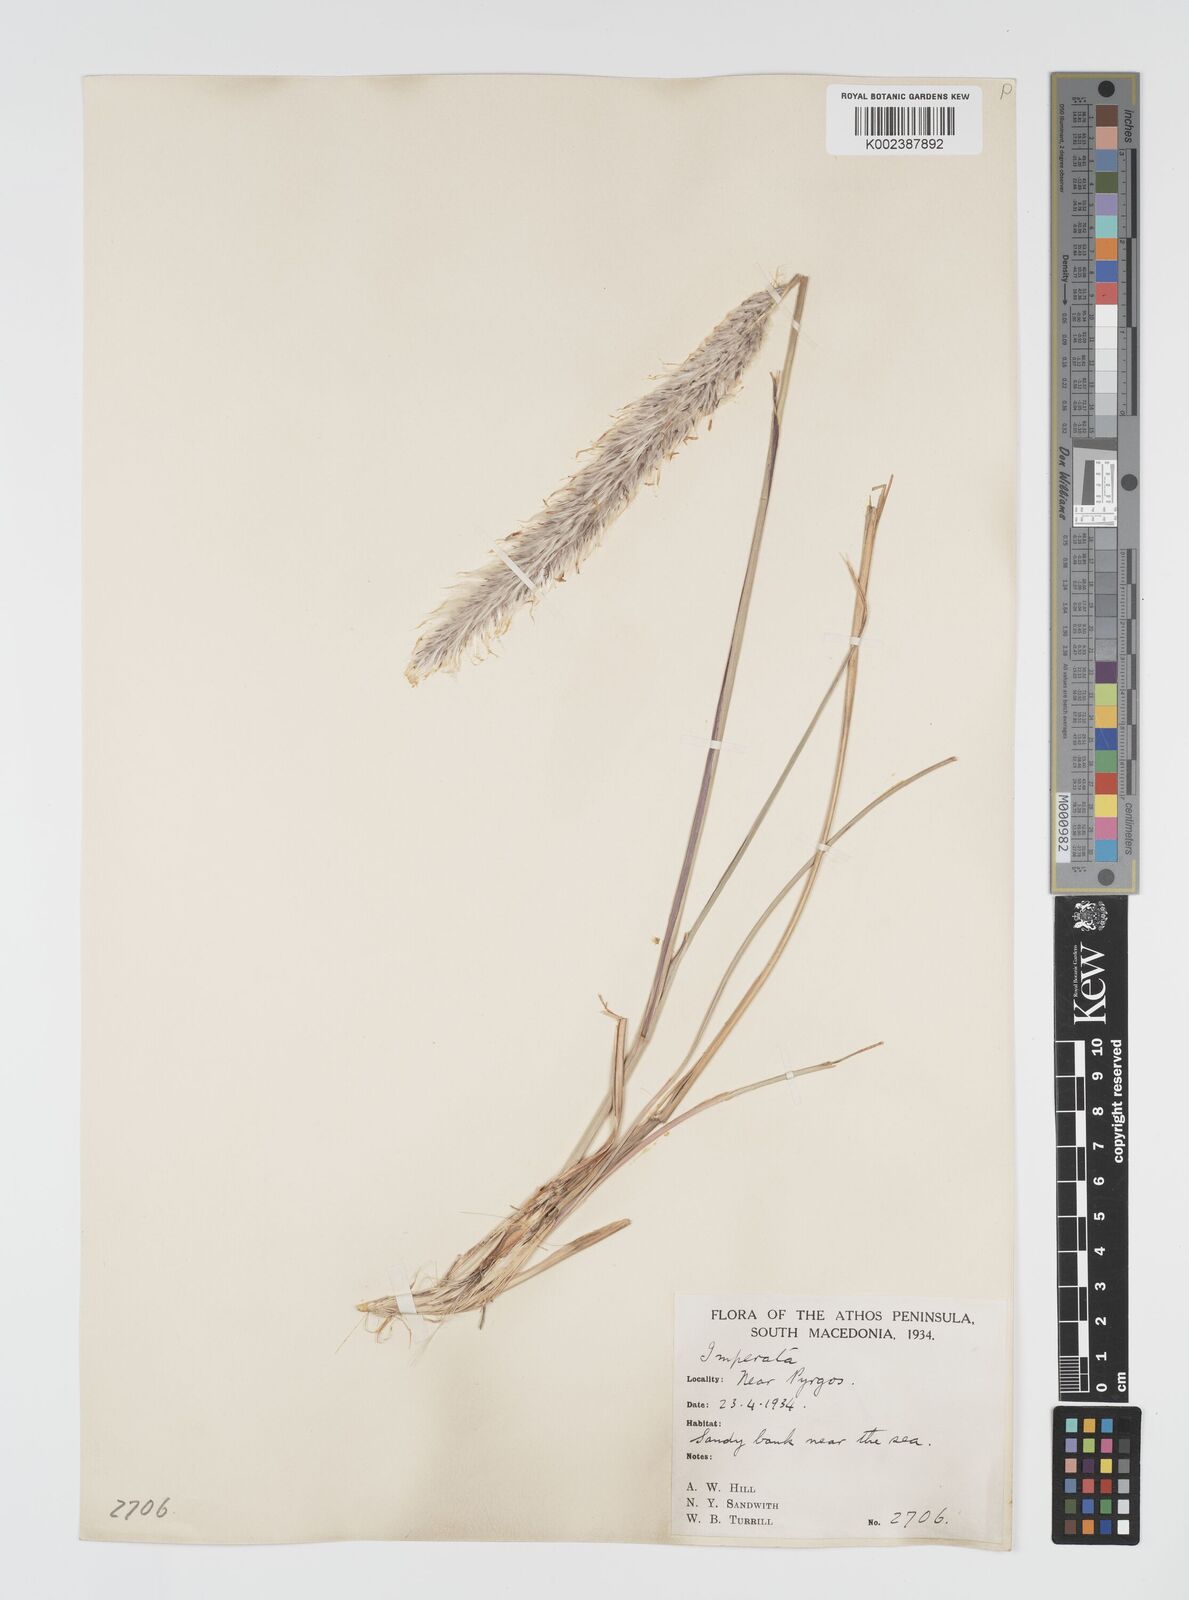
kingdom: Plantae
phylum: Tracheophyta
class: Liliopsida
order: Poales
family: Poaceae
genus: Imperata
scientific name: Imperata cylindrica
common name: Cogongrass
